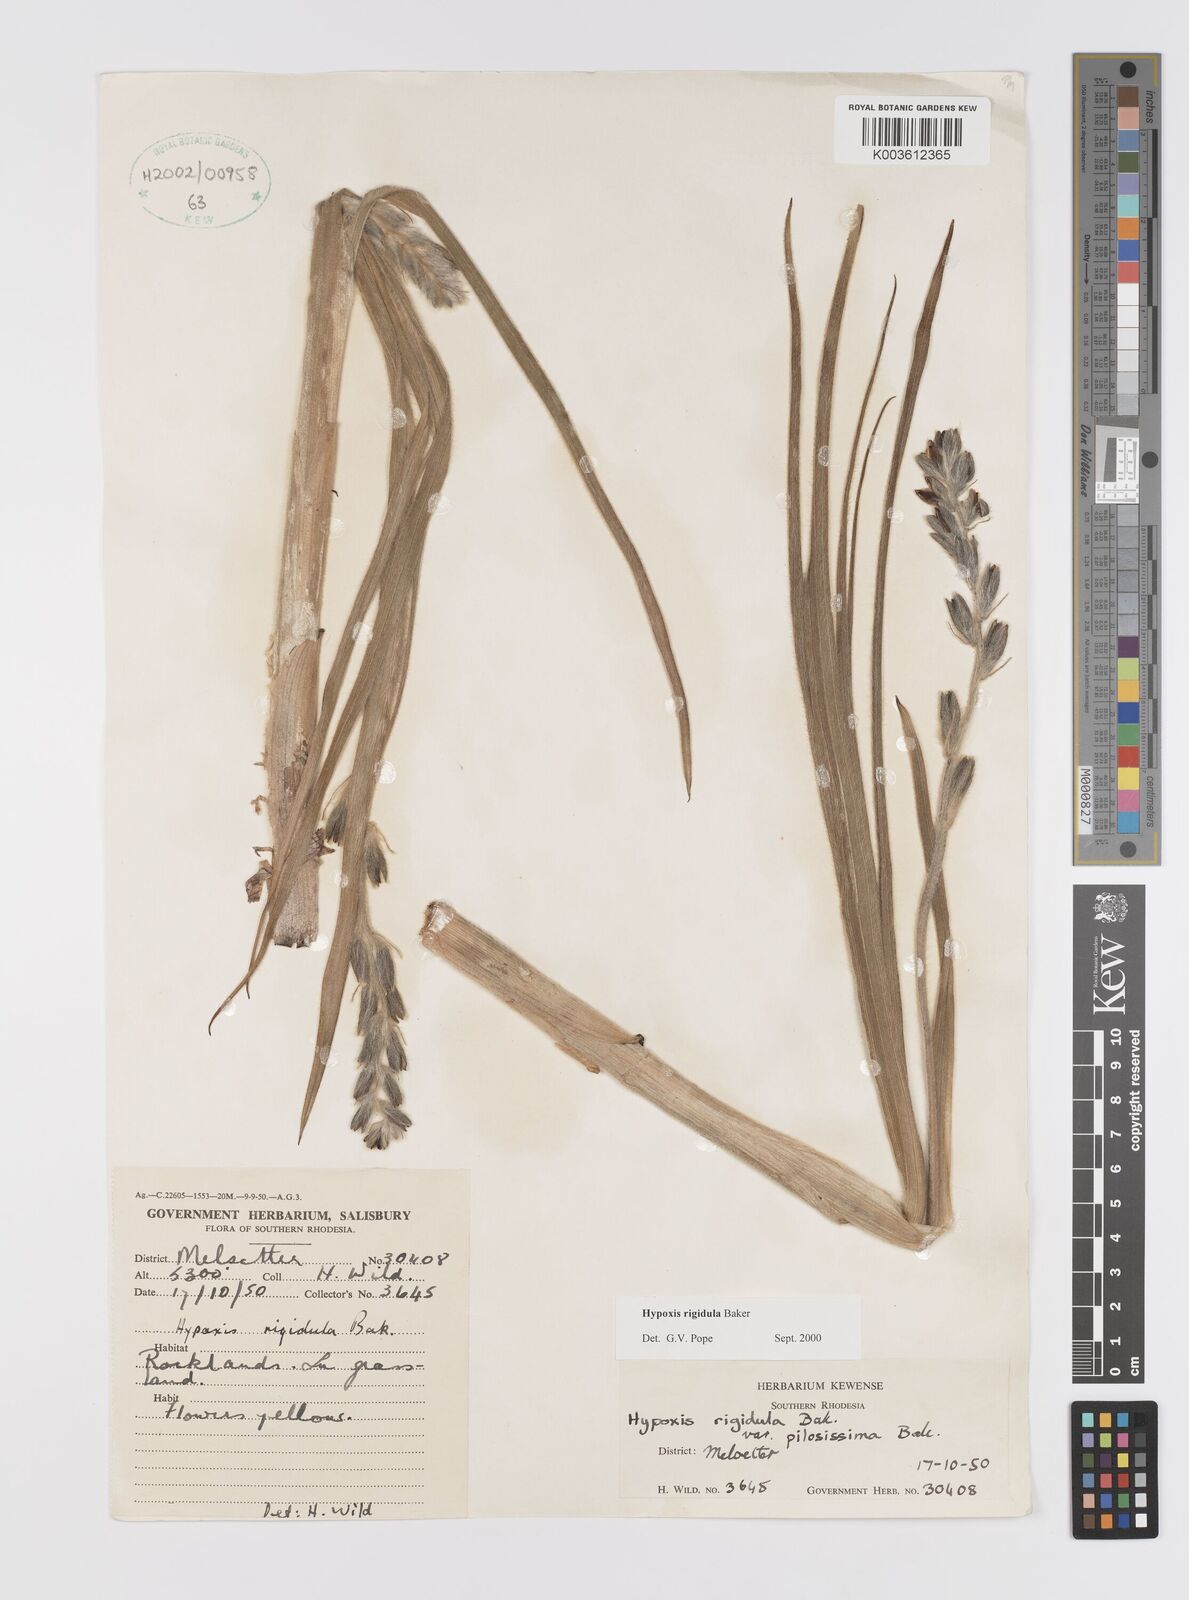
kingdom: Plantae
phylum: Tracheophyta
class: Liliopsida
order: Asparagales
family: Hypoxidaceae
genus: Hypoxis
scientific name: Hypoxis rigidula
